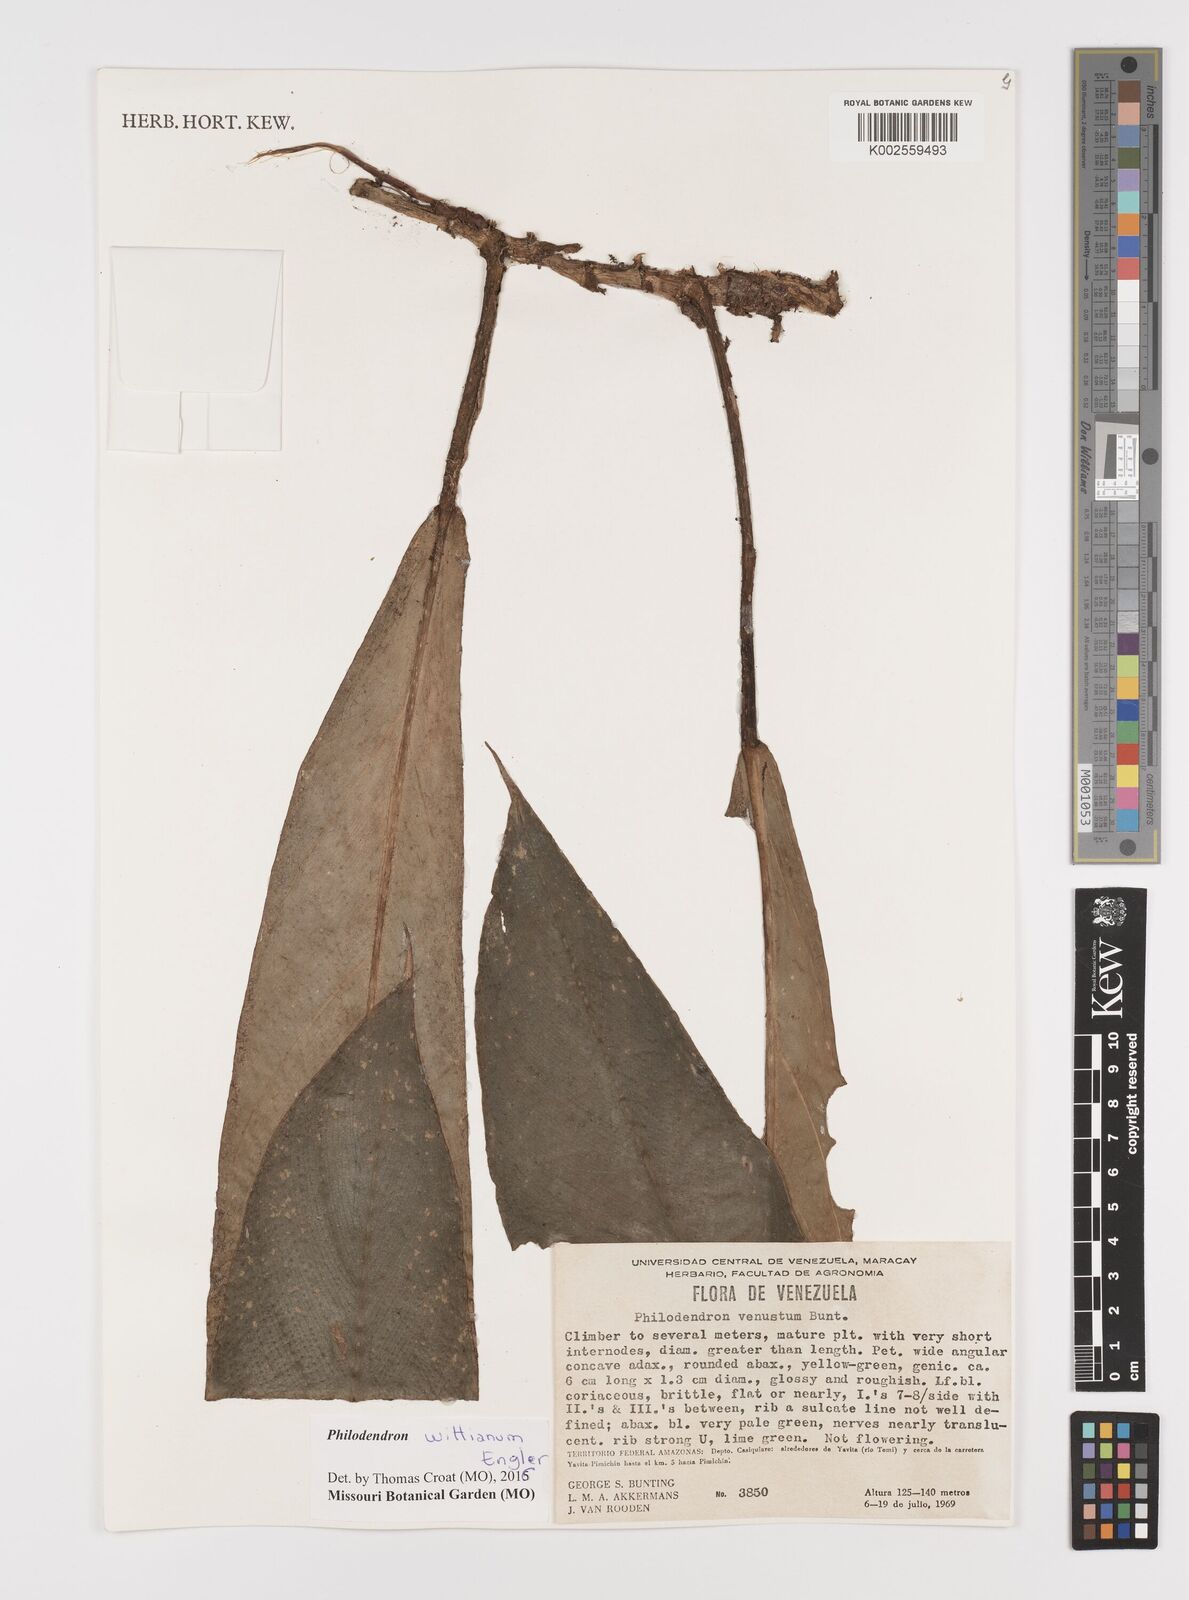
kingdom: Plantae
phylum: Tracheophyta
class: Liliopsida
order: Alismatales
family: Araceae
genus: Philodendron
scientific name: Philodendron wittianum
